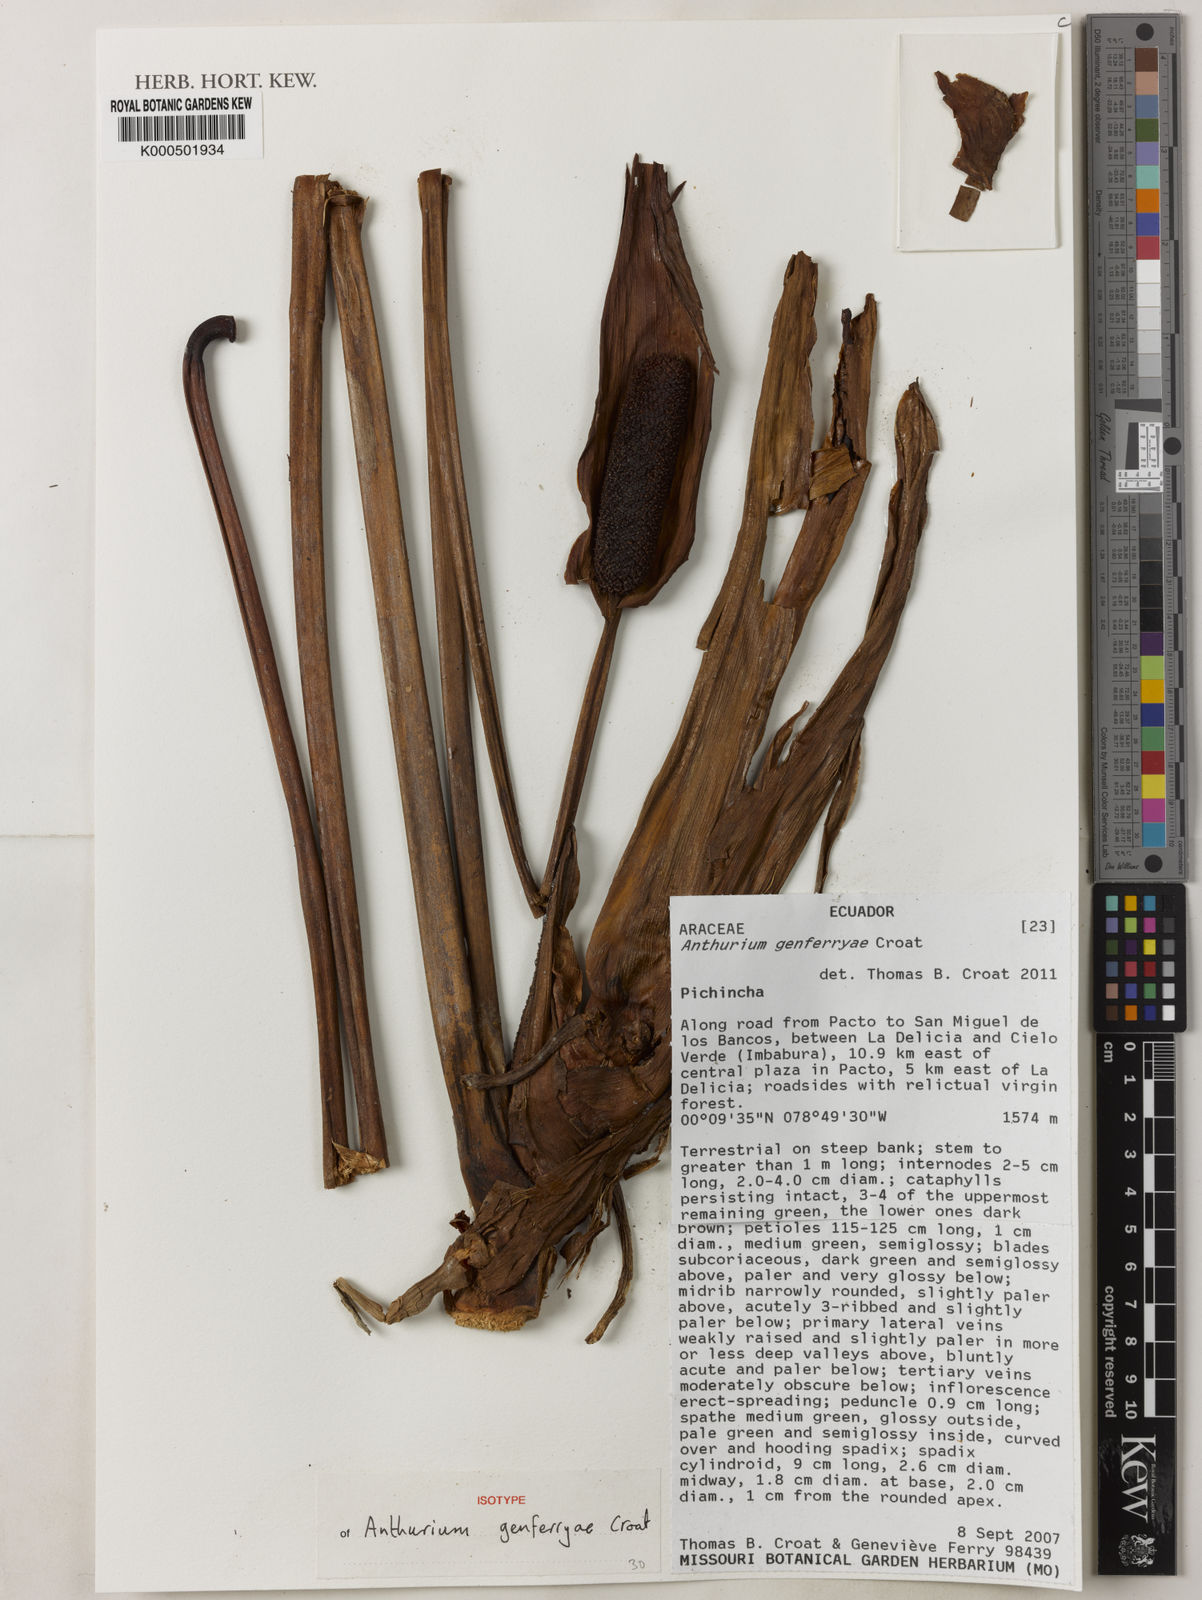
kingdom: Plantae
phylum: Tracheophyta
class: Liliopsida
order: Alismatales
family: Araceae
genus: Anthurium
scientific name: Anthurium genferryae
